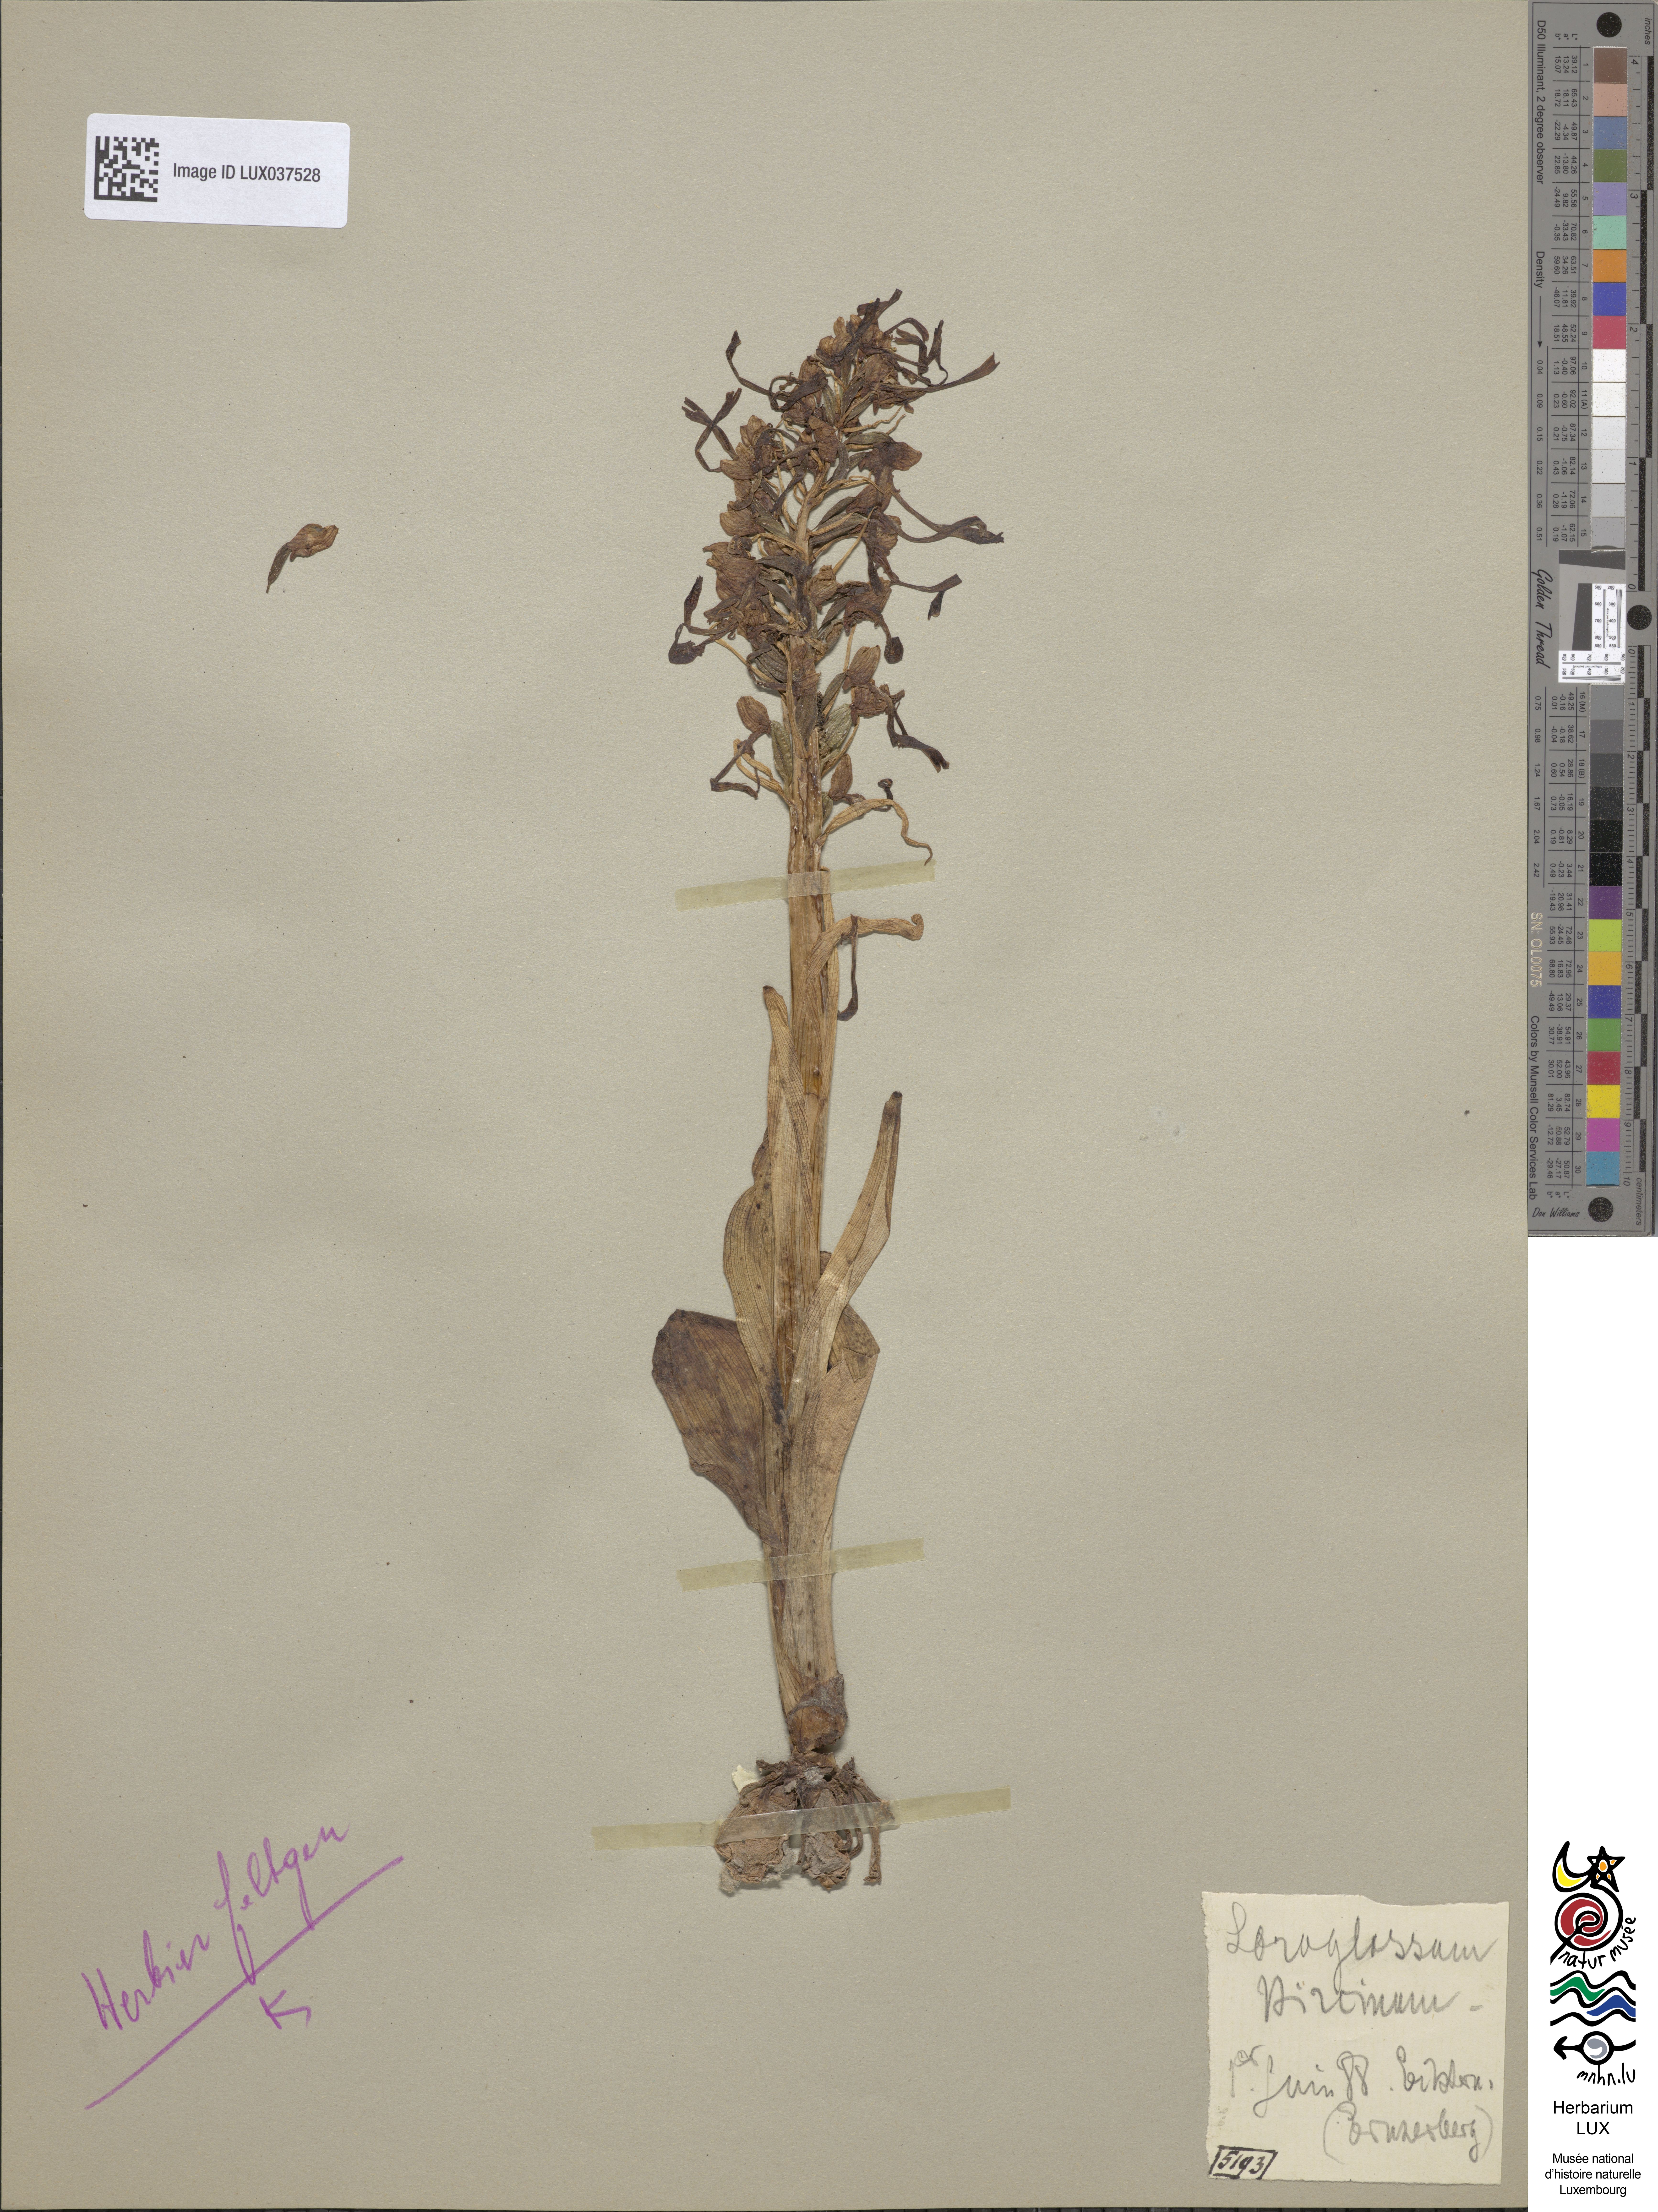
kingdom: Plantae
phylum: Tracheophyta
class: Liliopsida
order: Asparagales
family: Orchidaceae
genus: Himantoglossum
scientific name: Himantoglossum hircinum
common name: Lizard orchid
